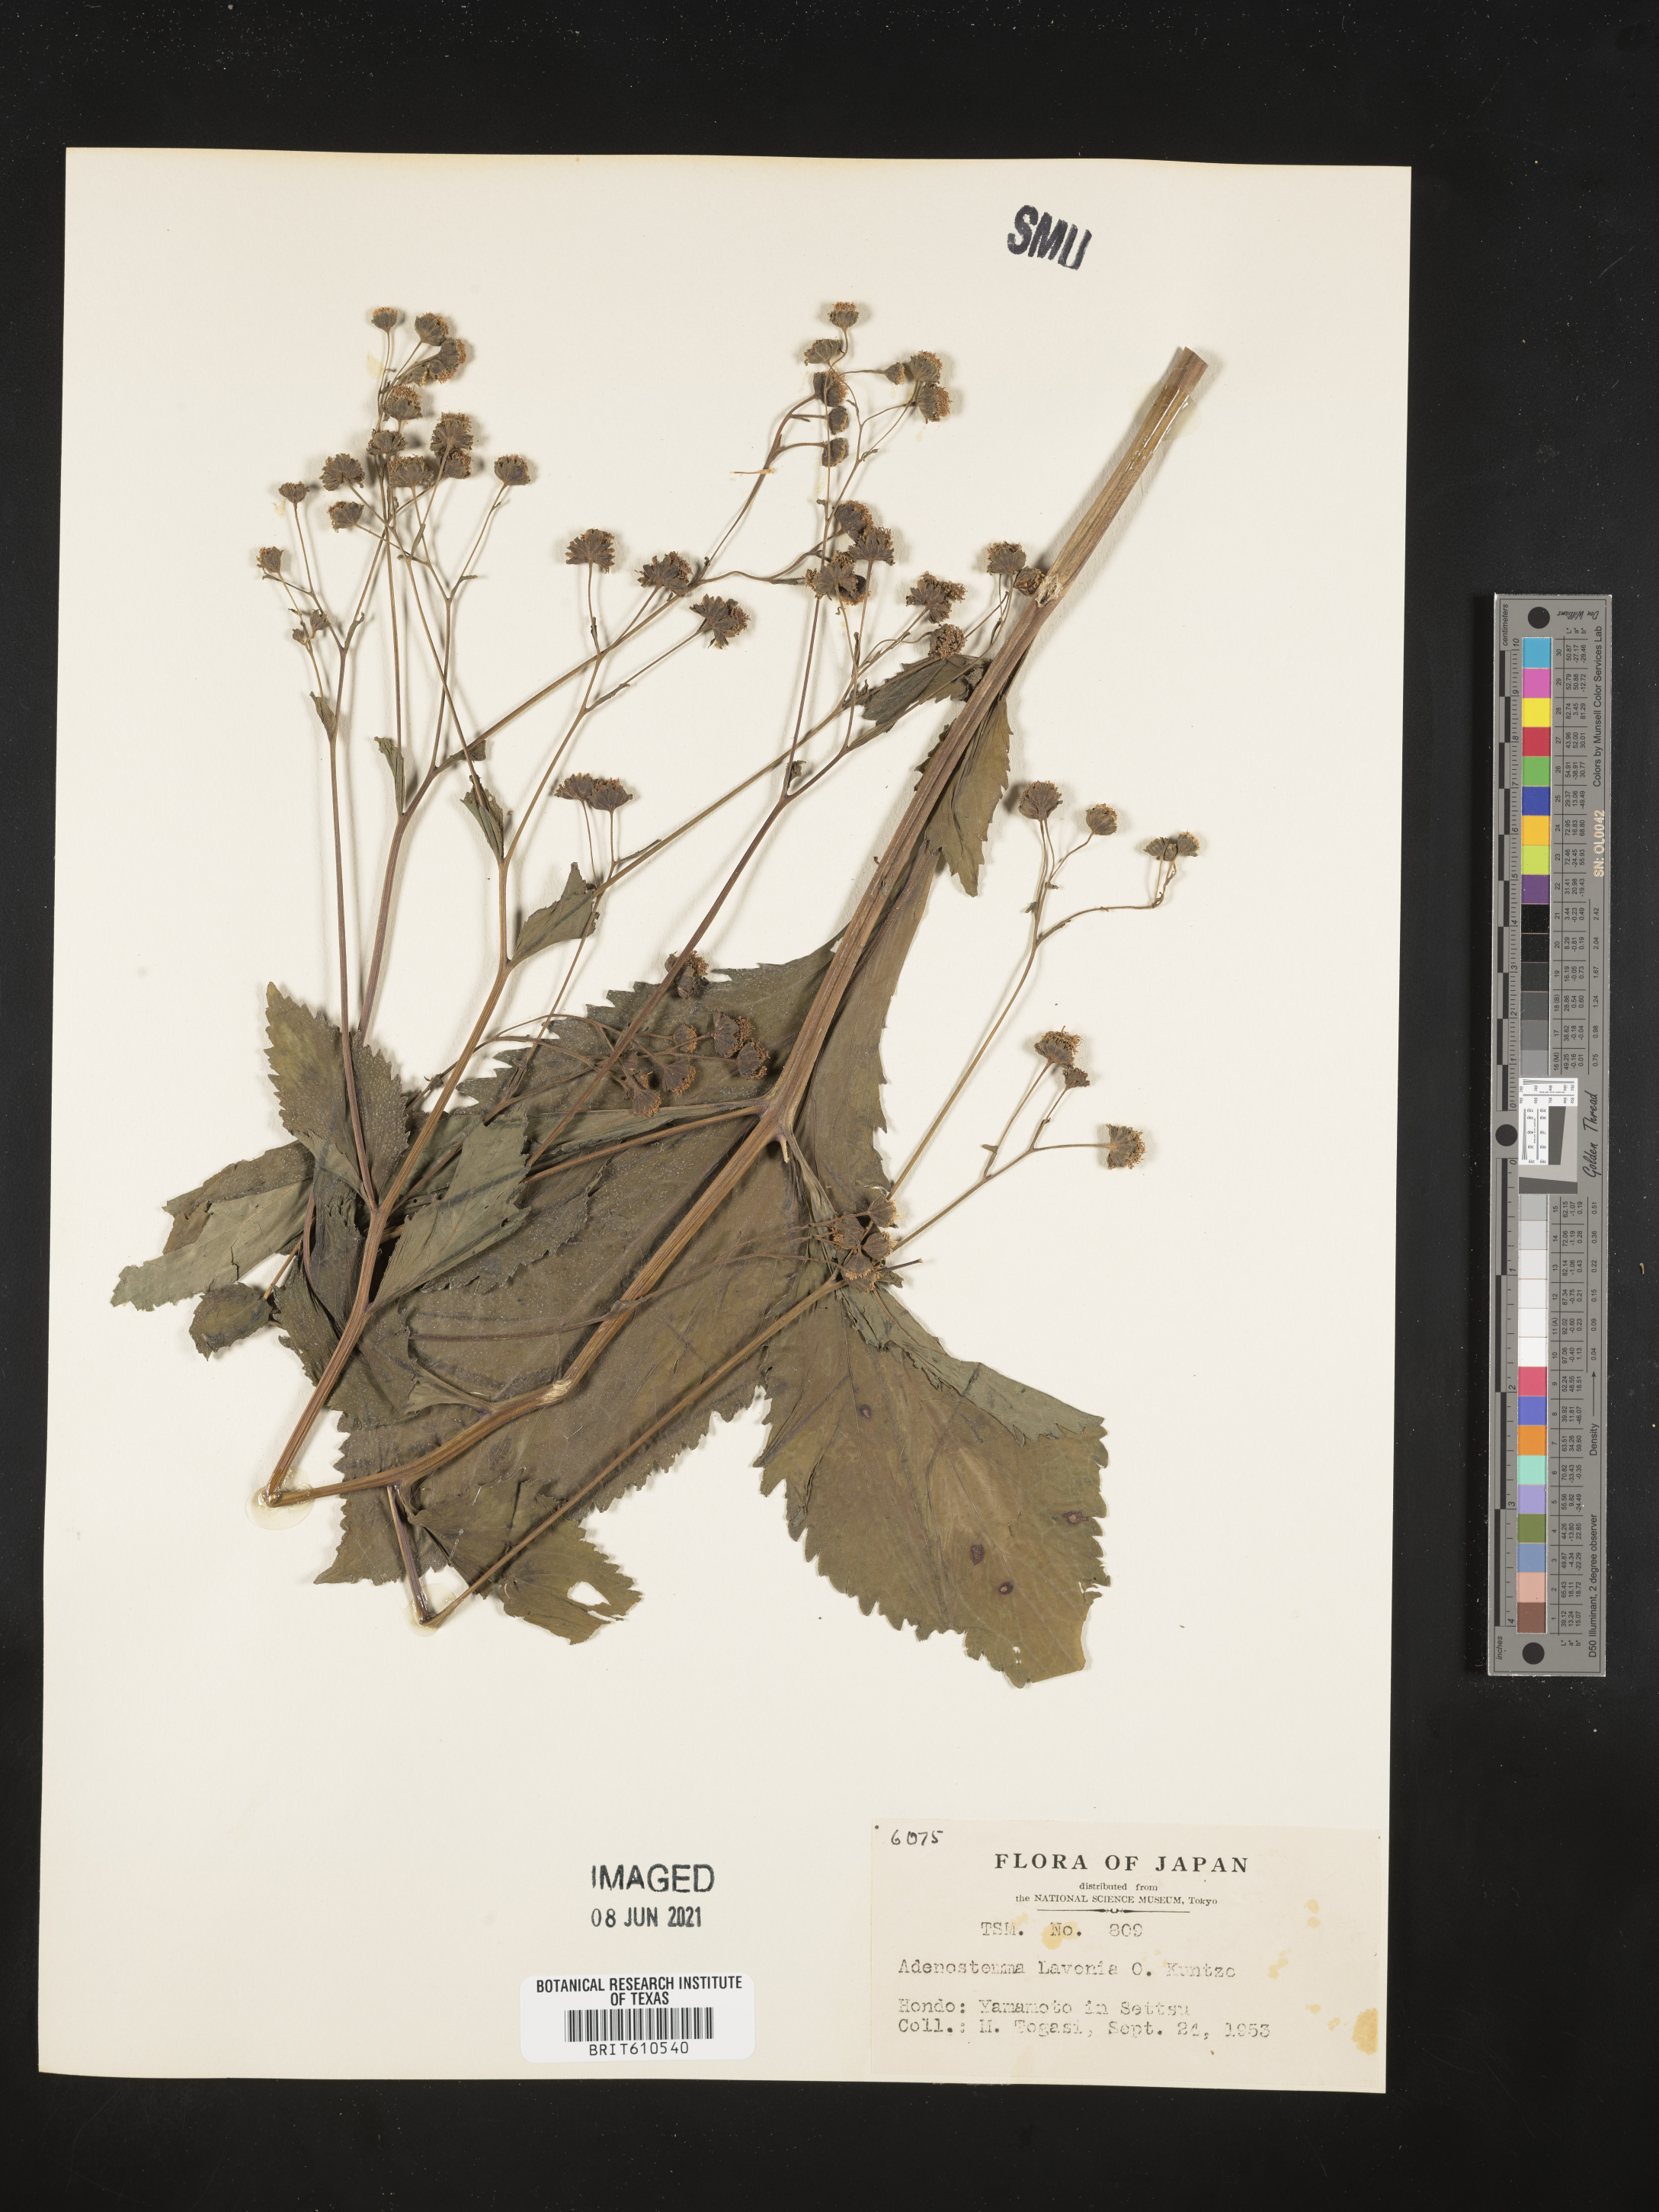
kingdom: Plantae
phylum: Tracheophyta
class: Magnoliopsida
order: Asterales
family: Asteraceae
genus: Adenostemma
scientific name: Adenostemma lavenia
